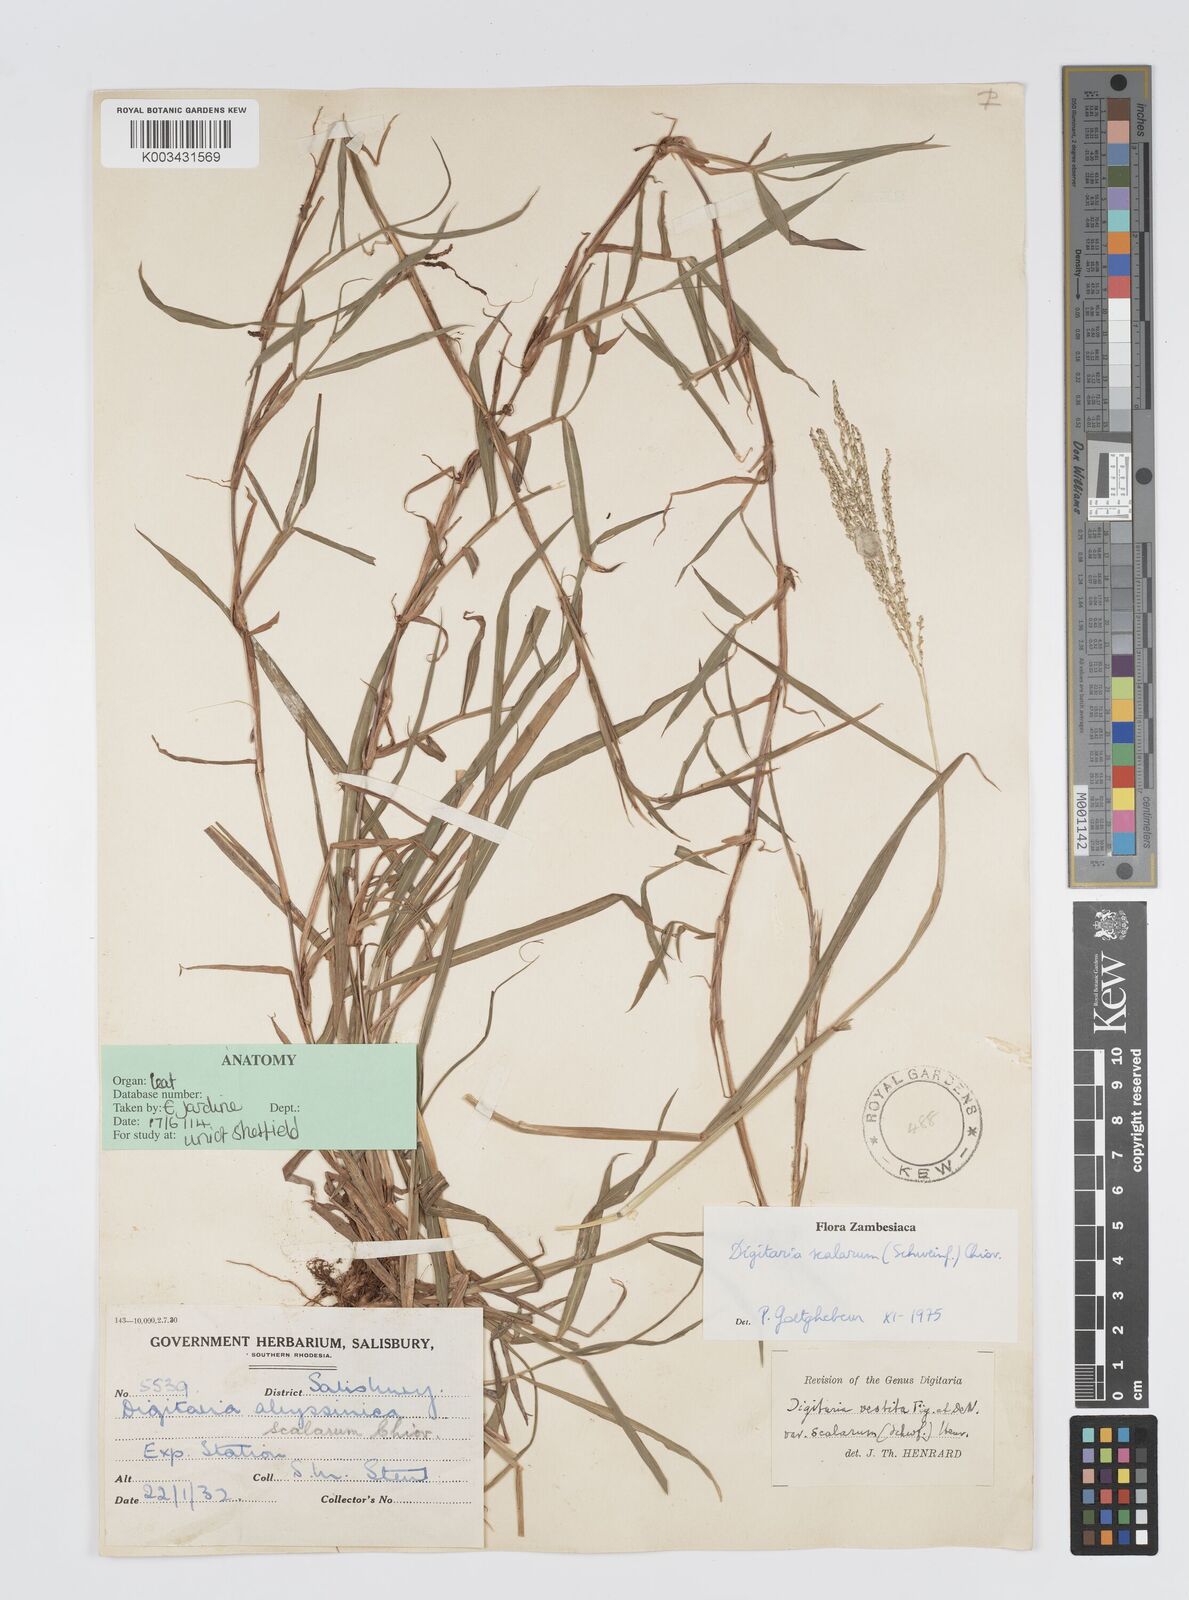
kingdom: Plantae
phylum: Tracheophyta
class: Liliopsida
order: Poales
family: Poaceae
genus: Digitaria
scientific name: Digitaria abyssinica
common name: African couchgrass
